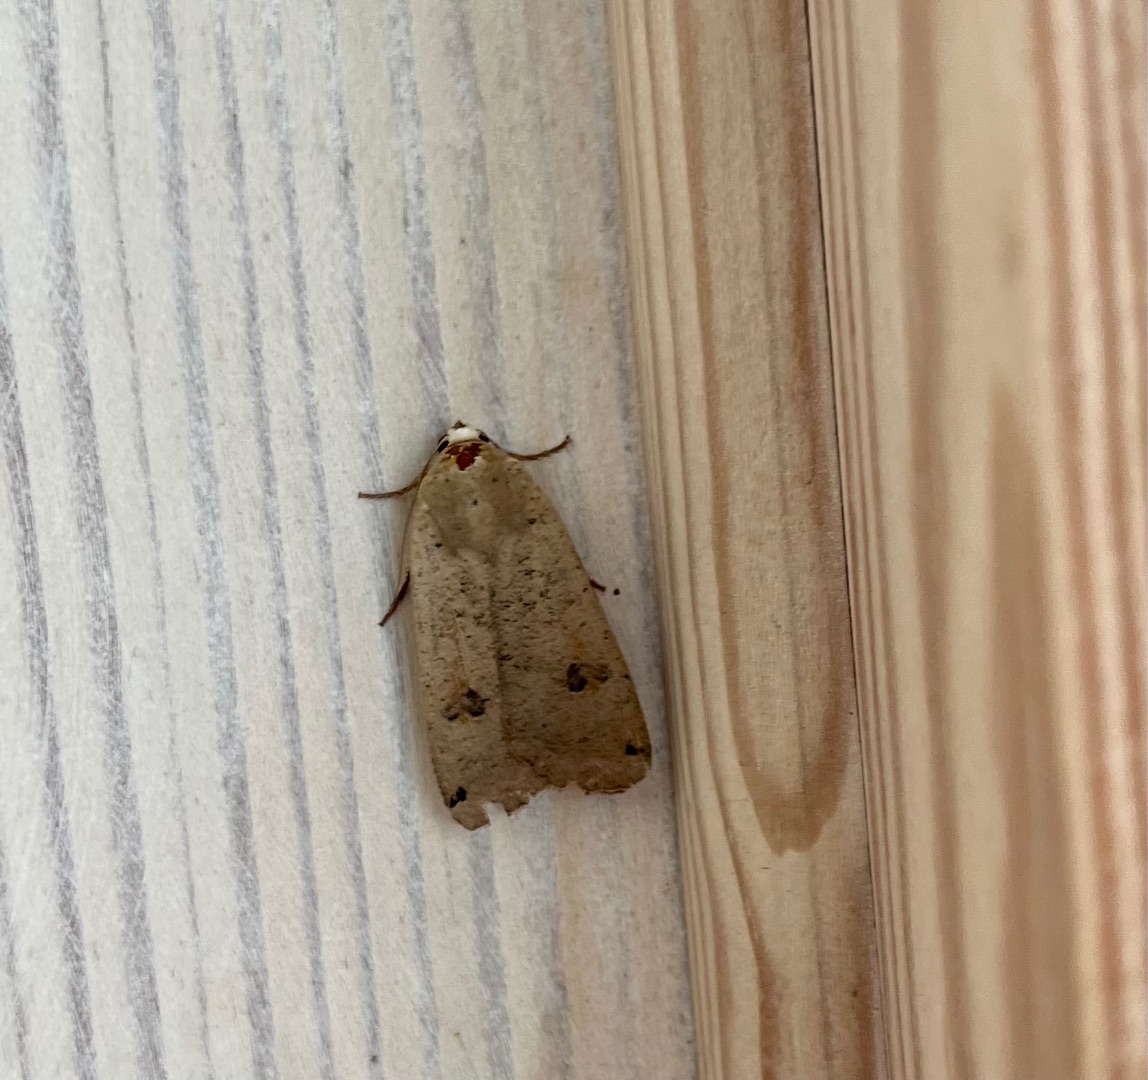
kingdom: Animalia
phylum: Arthropoda
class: Insecta
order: Lepidoptera
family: Noctuidae
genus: Noctua
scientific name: Noctua pronuba
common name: Stor smutugle
